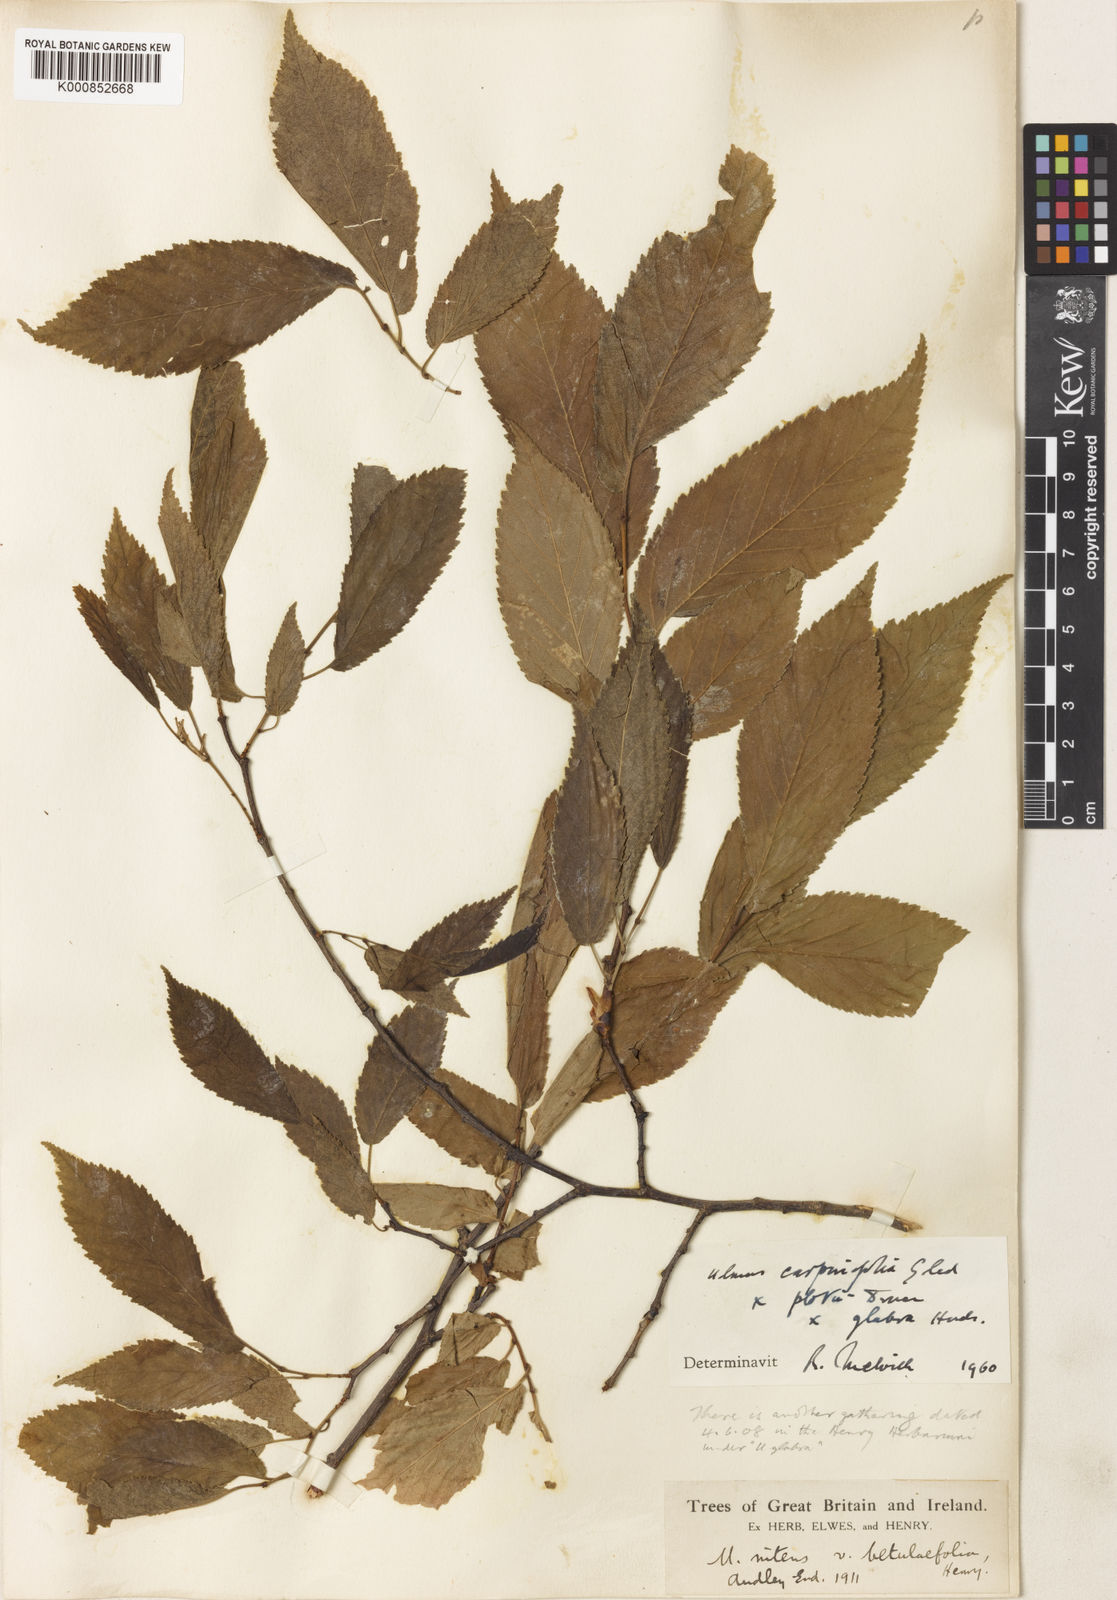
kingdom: Plantae
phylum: Tracheophyta
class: Magnoliopsida
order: Rosales
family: Ulmaceae
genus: Ulmus
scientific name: Ulmus minor
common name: Small-leaved elm
